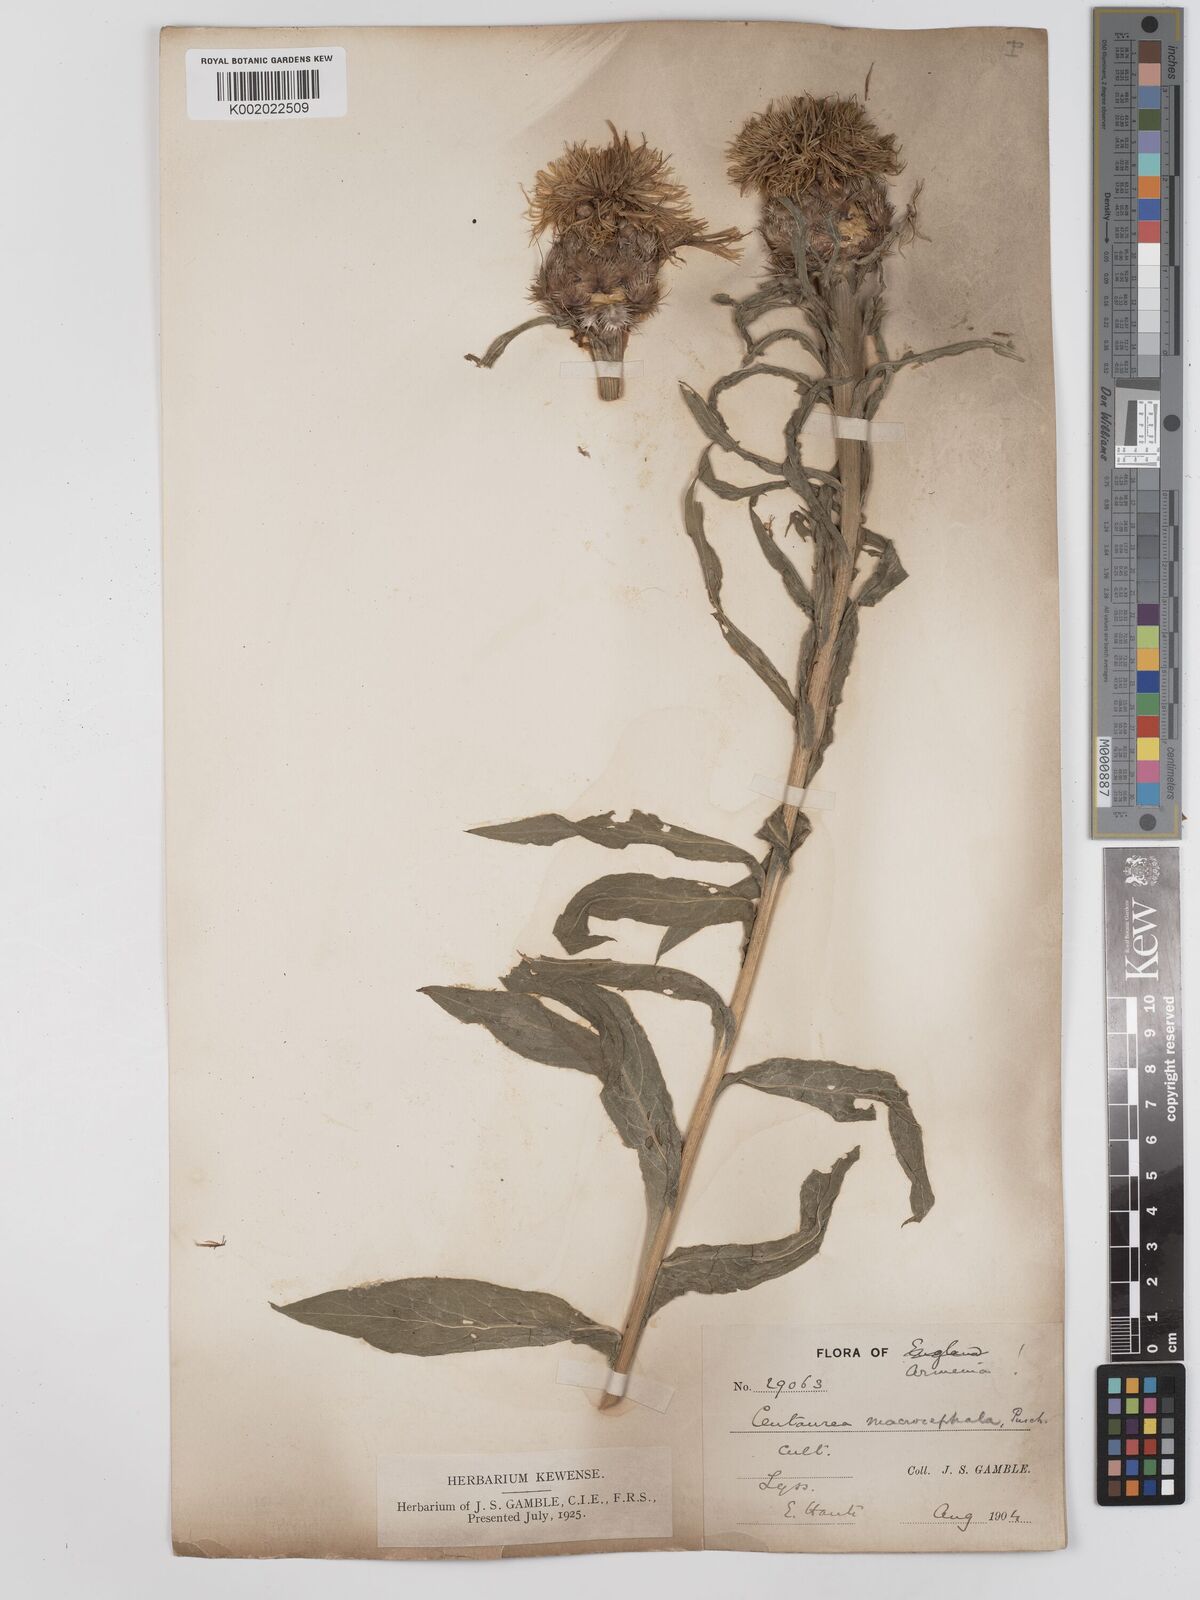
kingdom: Plantae
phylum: Tracheophyta
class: Magnoliopsida
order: Asterales
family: Asteraceae
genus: Centaurea
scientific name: Centaurea macrocephala
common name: Big-head knapweed
